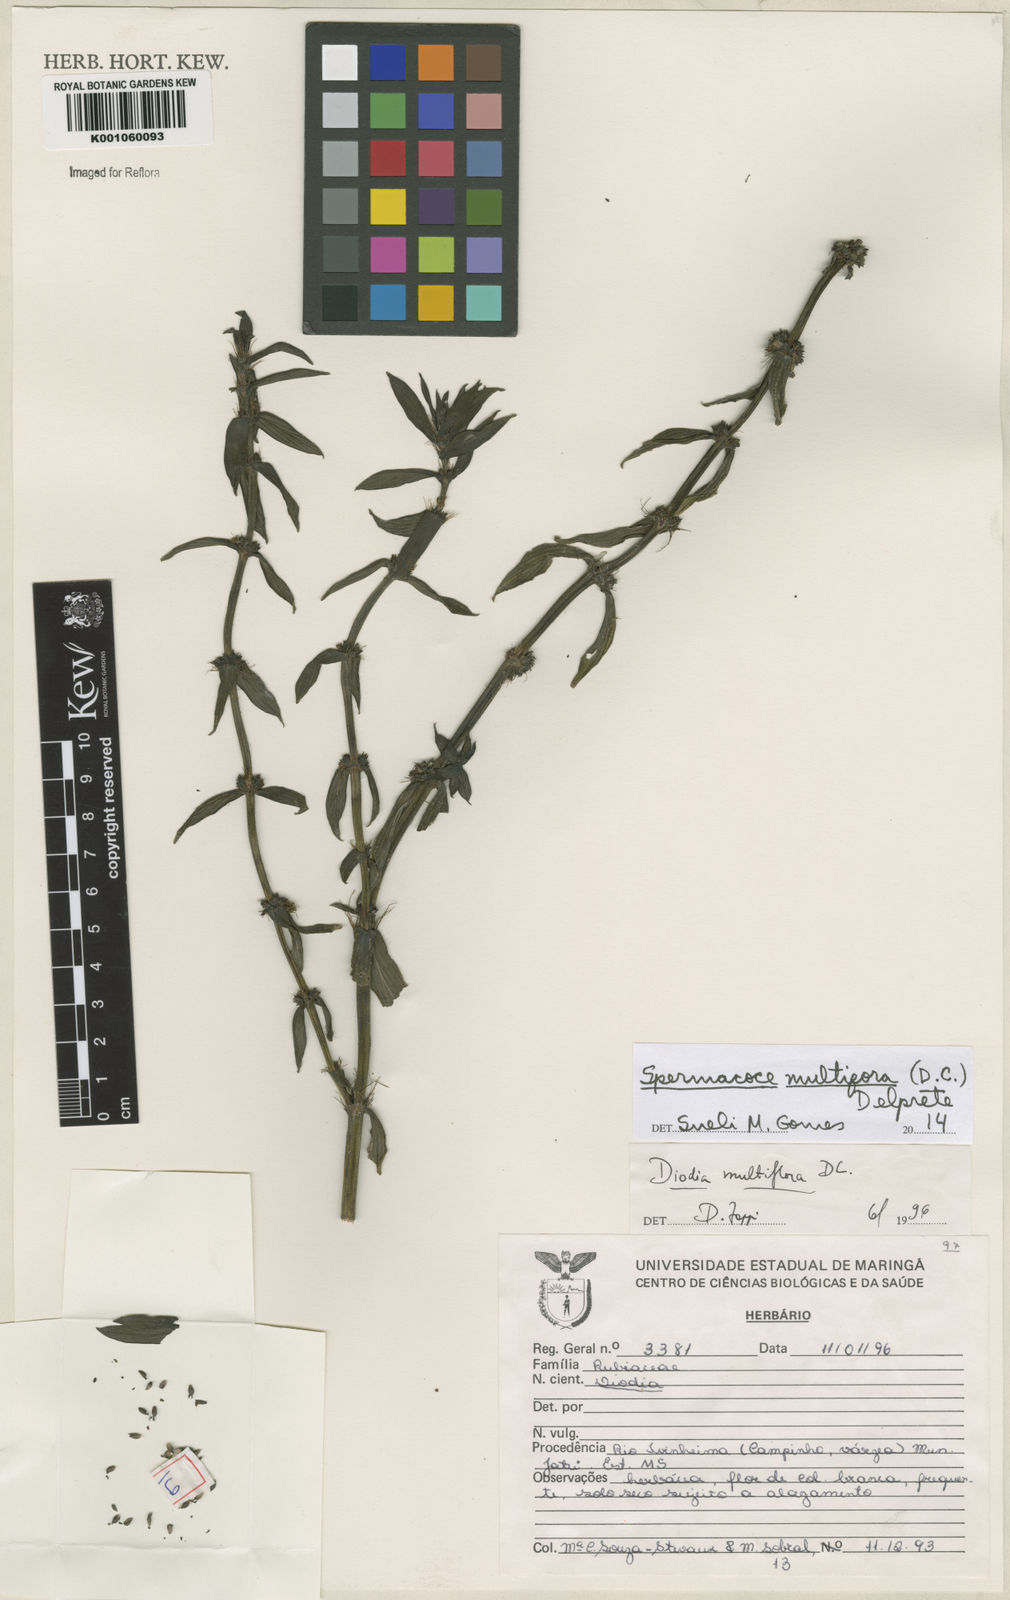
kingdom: Plantae
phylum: Tracheophyta
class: Magnoliopsida
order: Gentianales
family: Rubiaceae
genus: Spermacoce
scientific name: Spermacoce multiflora
